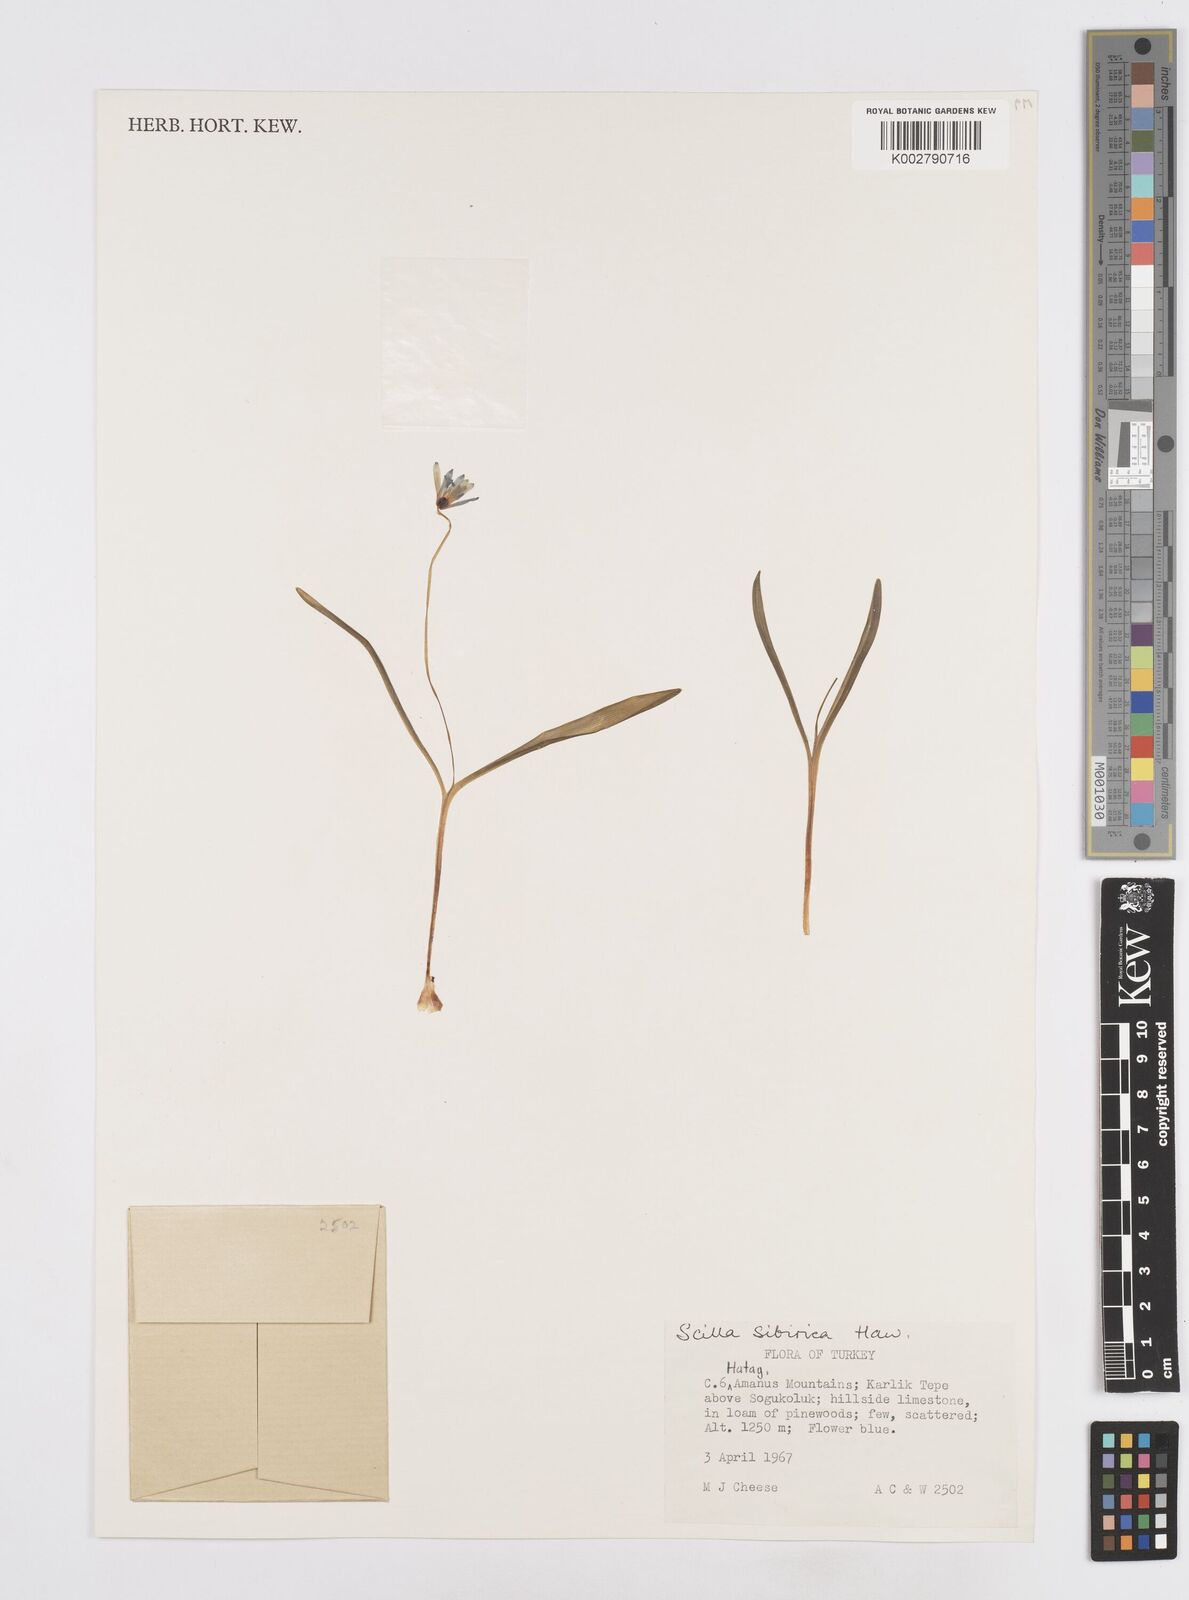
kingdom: Plantae
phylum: Tracheophyta
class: Liliopsida
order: Asparagales
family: Asparagaceae
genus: Scilla
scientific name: Scilla siberica
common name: Siberian squill
